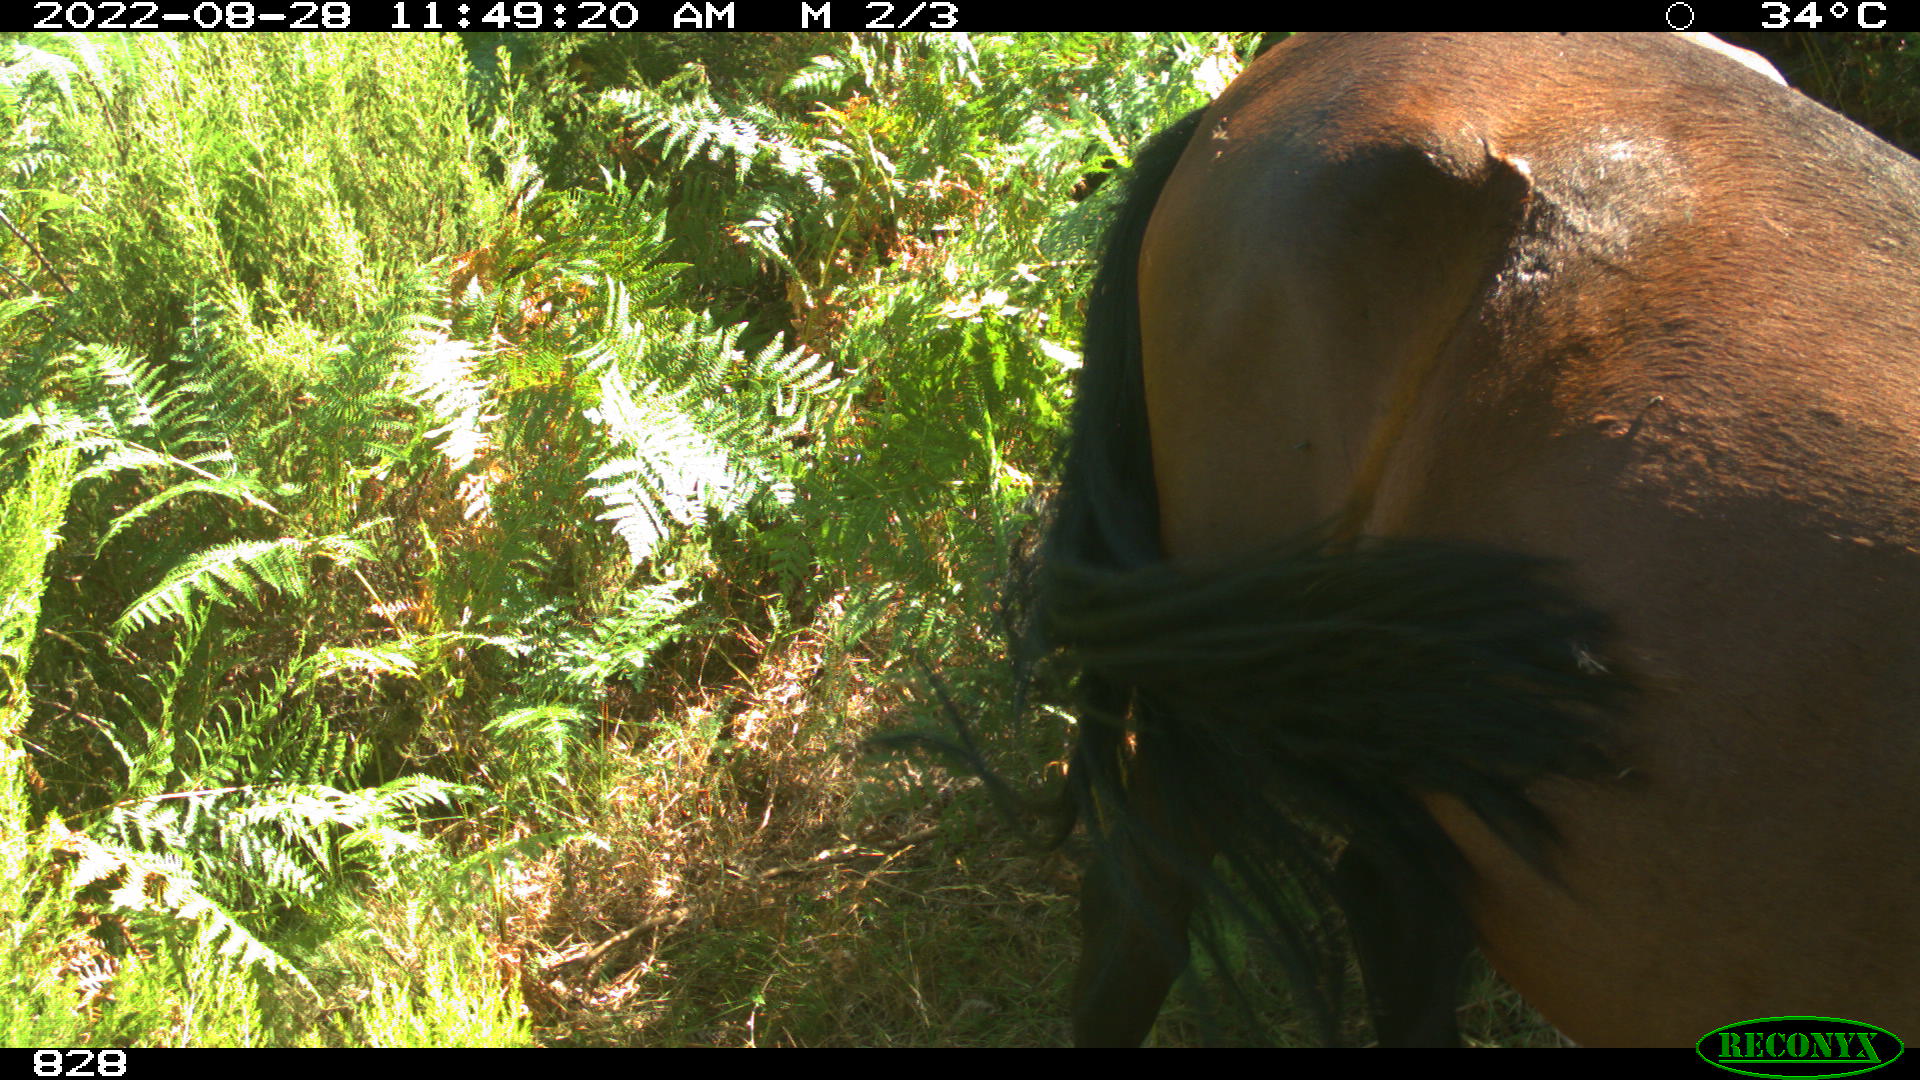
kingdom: Animalia
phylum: Chordata
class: Mammalia
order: Perissodactyla
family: Equidae
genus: Equus
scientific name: Equus caballus
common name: Horse
